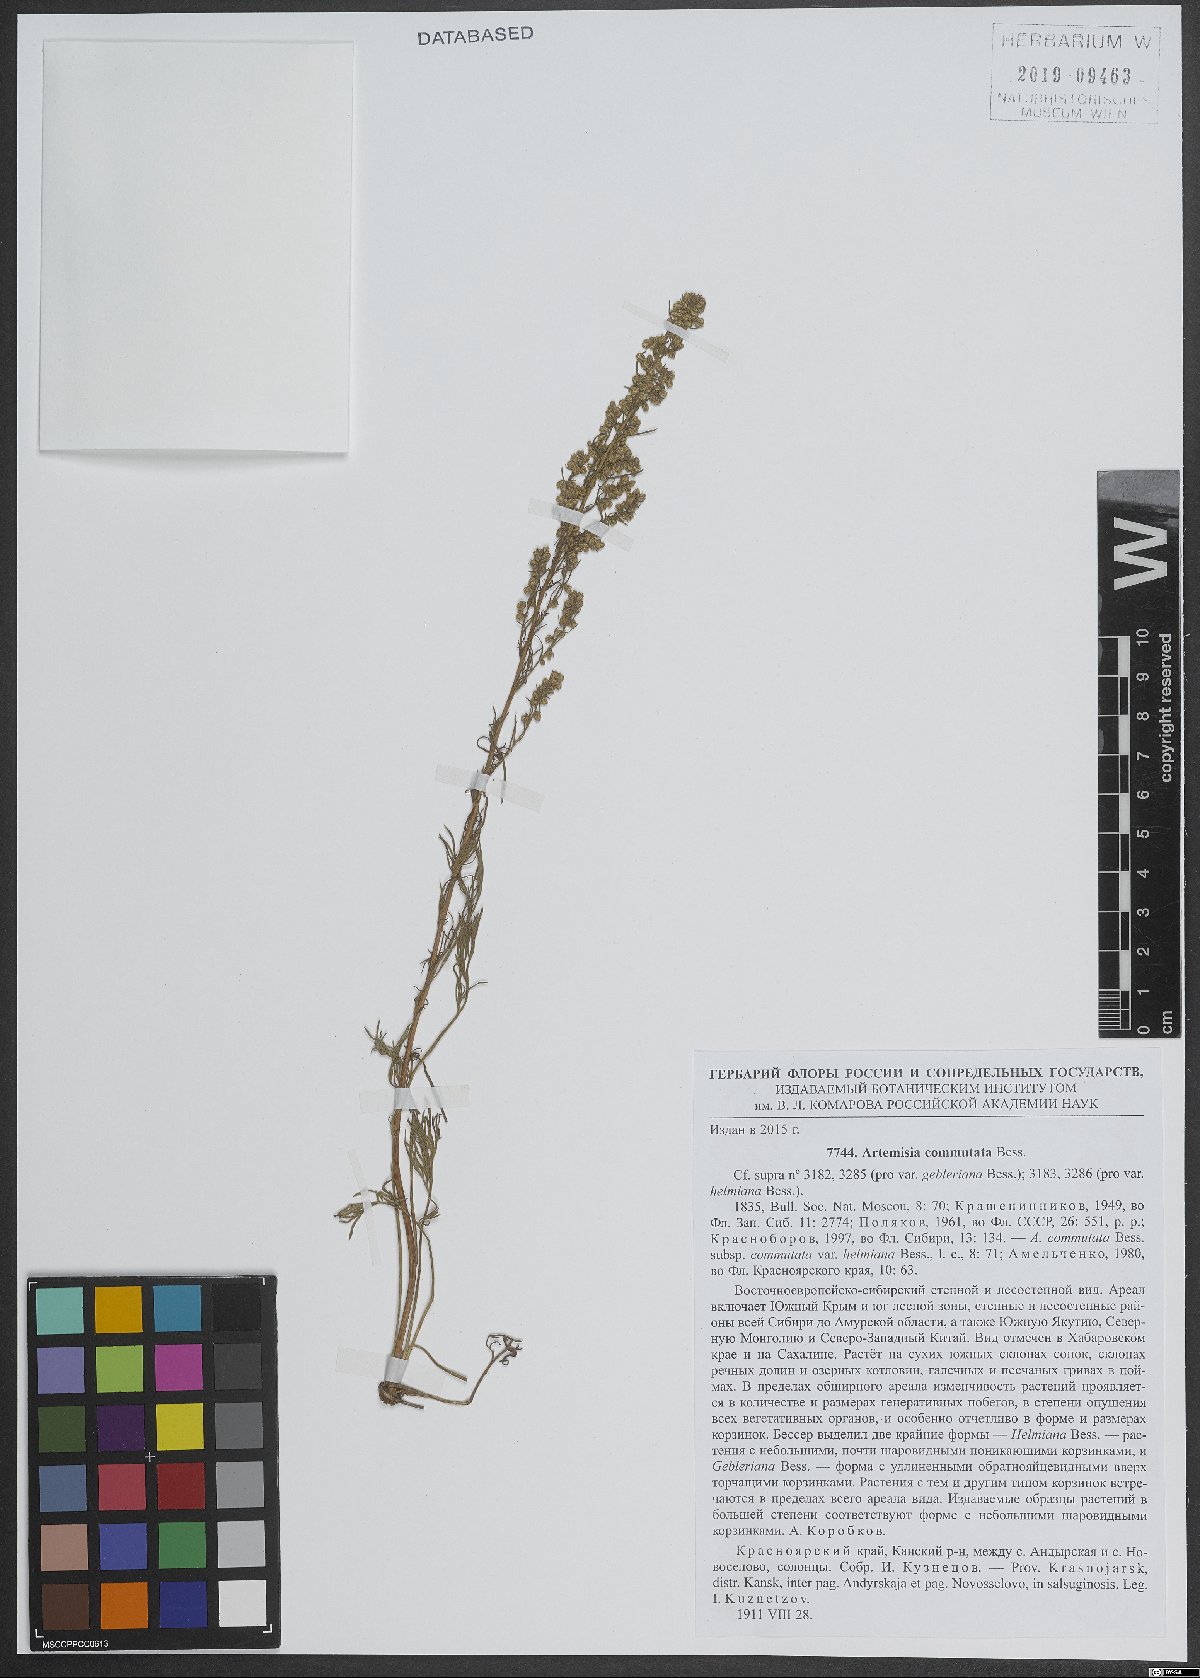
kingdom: Plantae
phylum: Tracheophyta
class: Magnoliopsida
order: Asterales
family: Asteraceae
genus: Artemisia
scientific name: Artemisia pubescens
